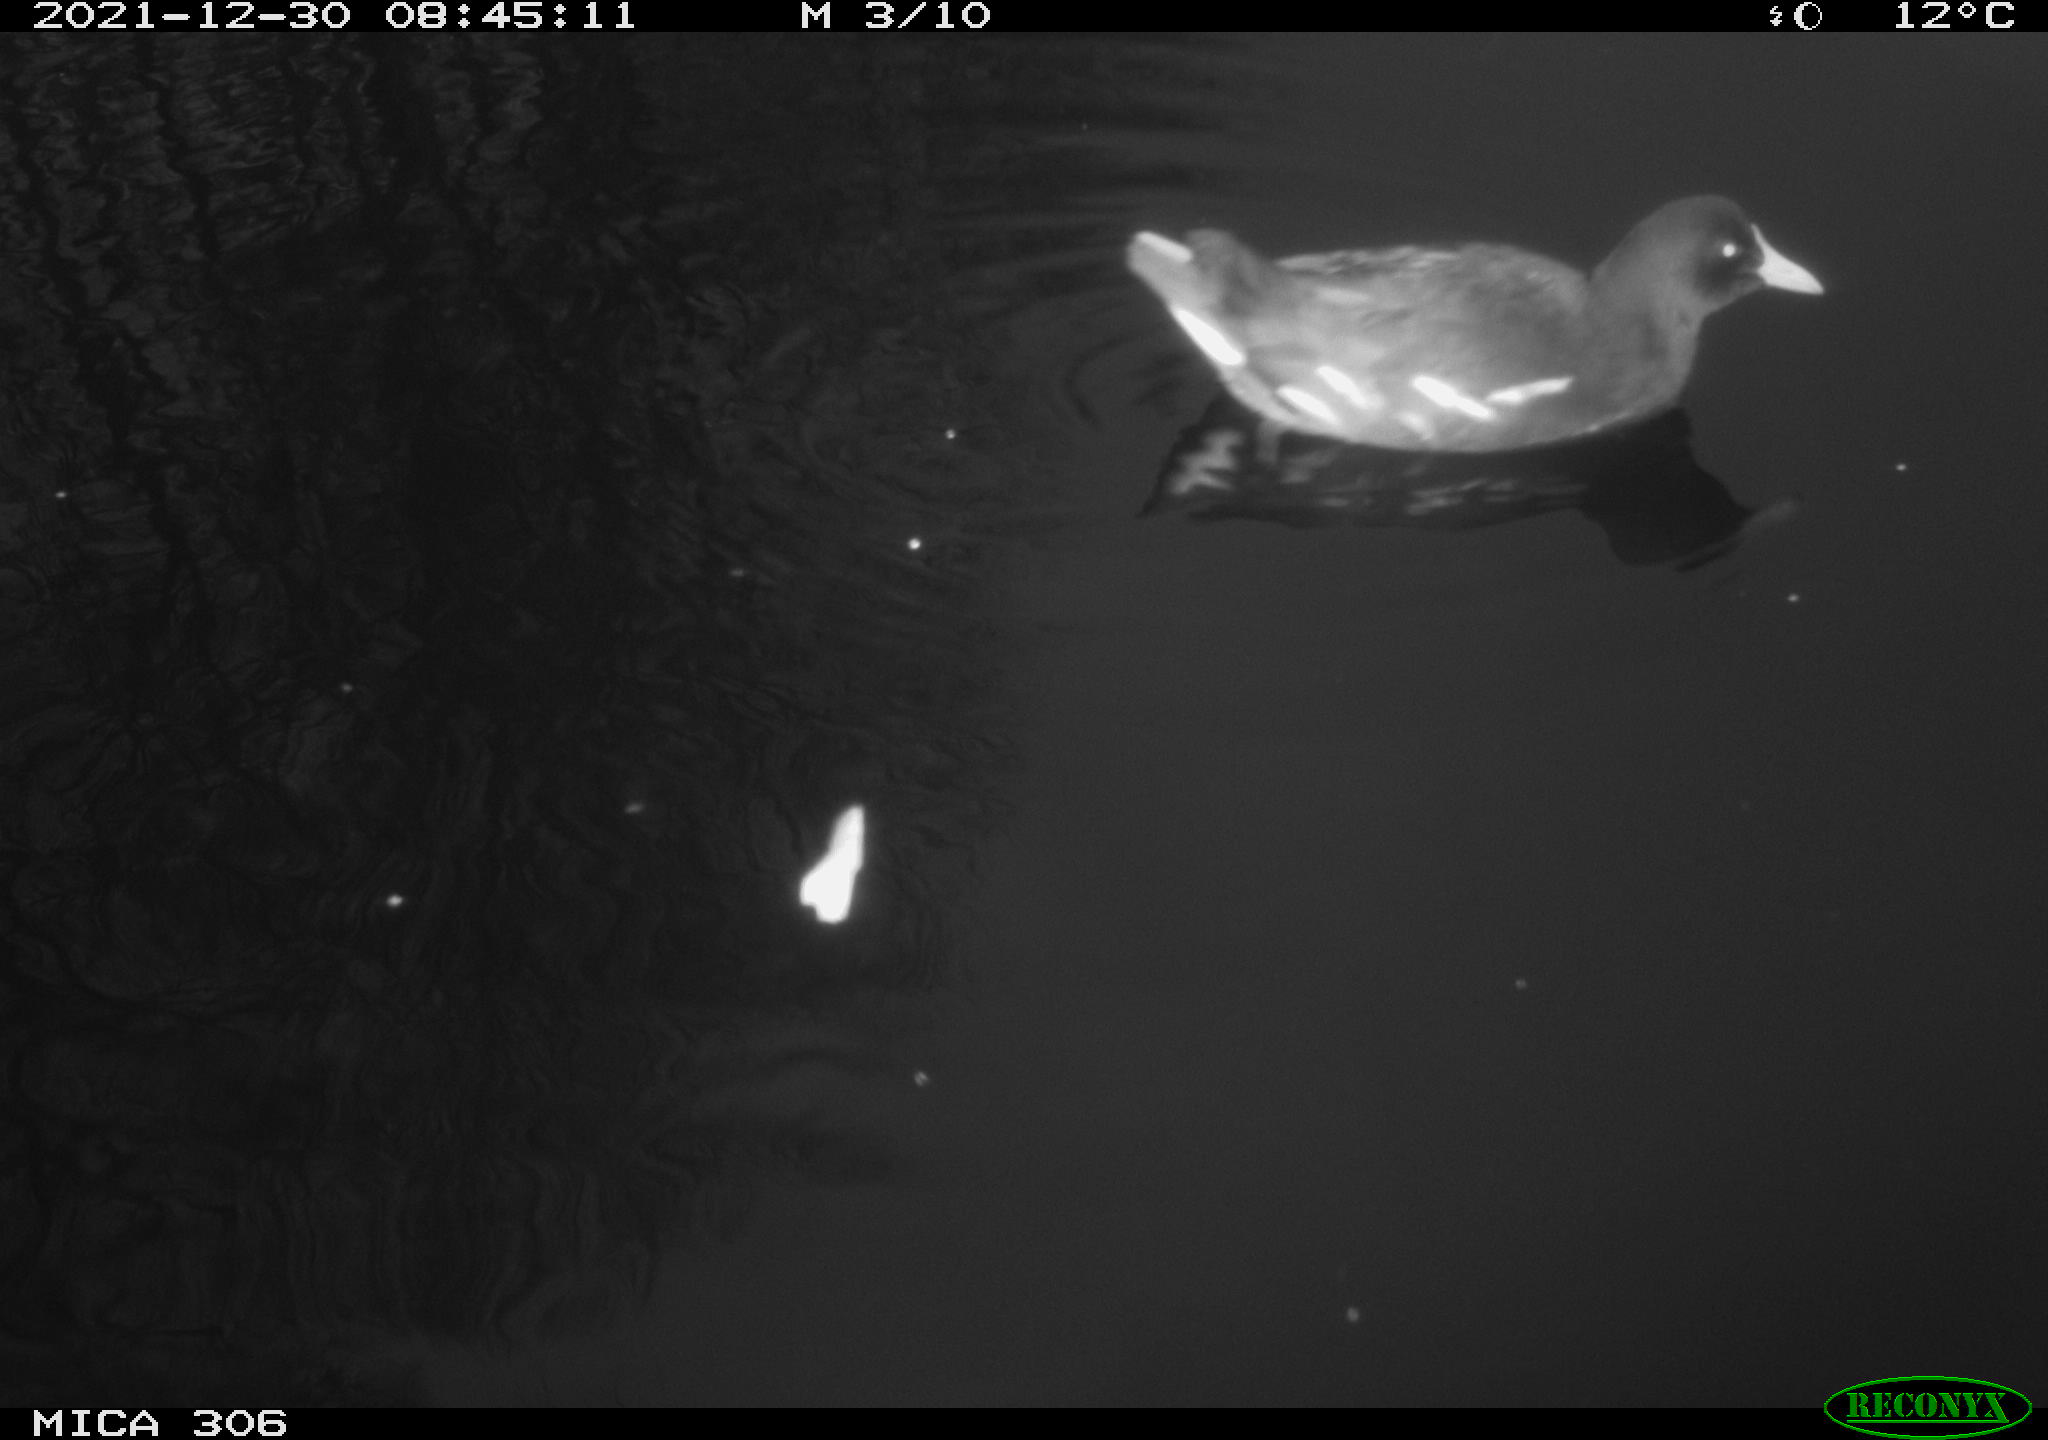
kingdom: Animalia
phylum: Chordata
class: Aves
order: Gruiformes
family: Rallidae
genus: Gallinula
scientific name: Gallinula chloropus
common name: Common moorhen
